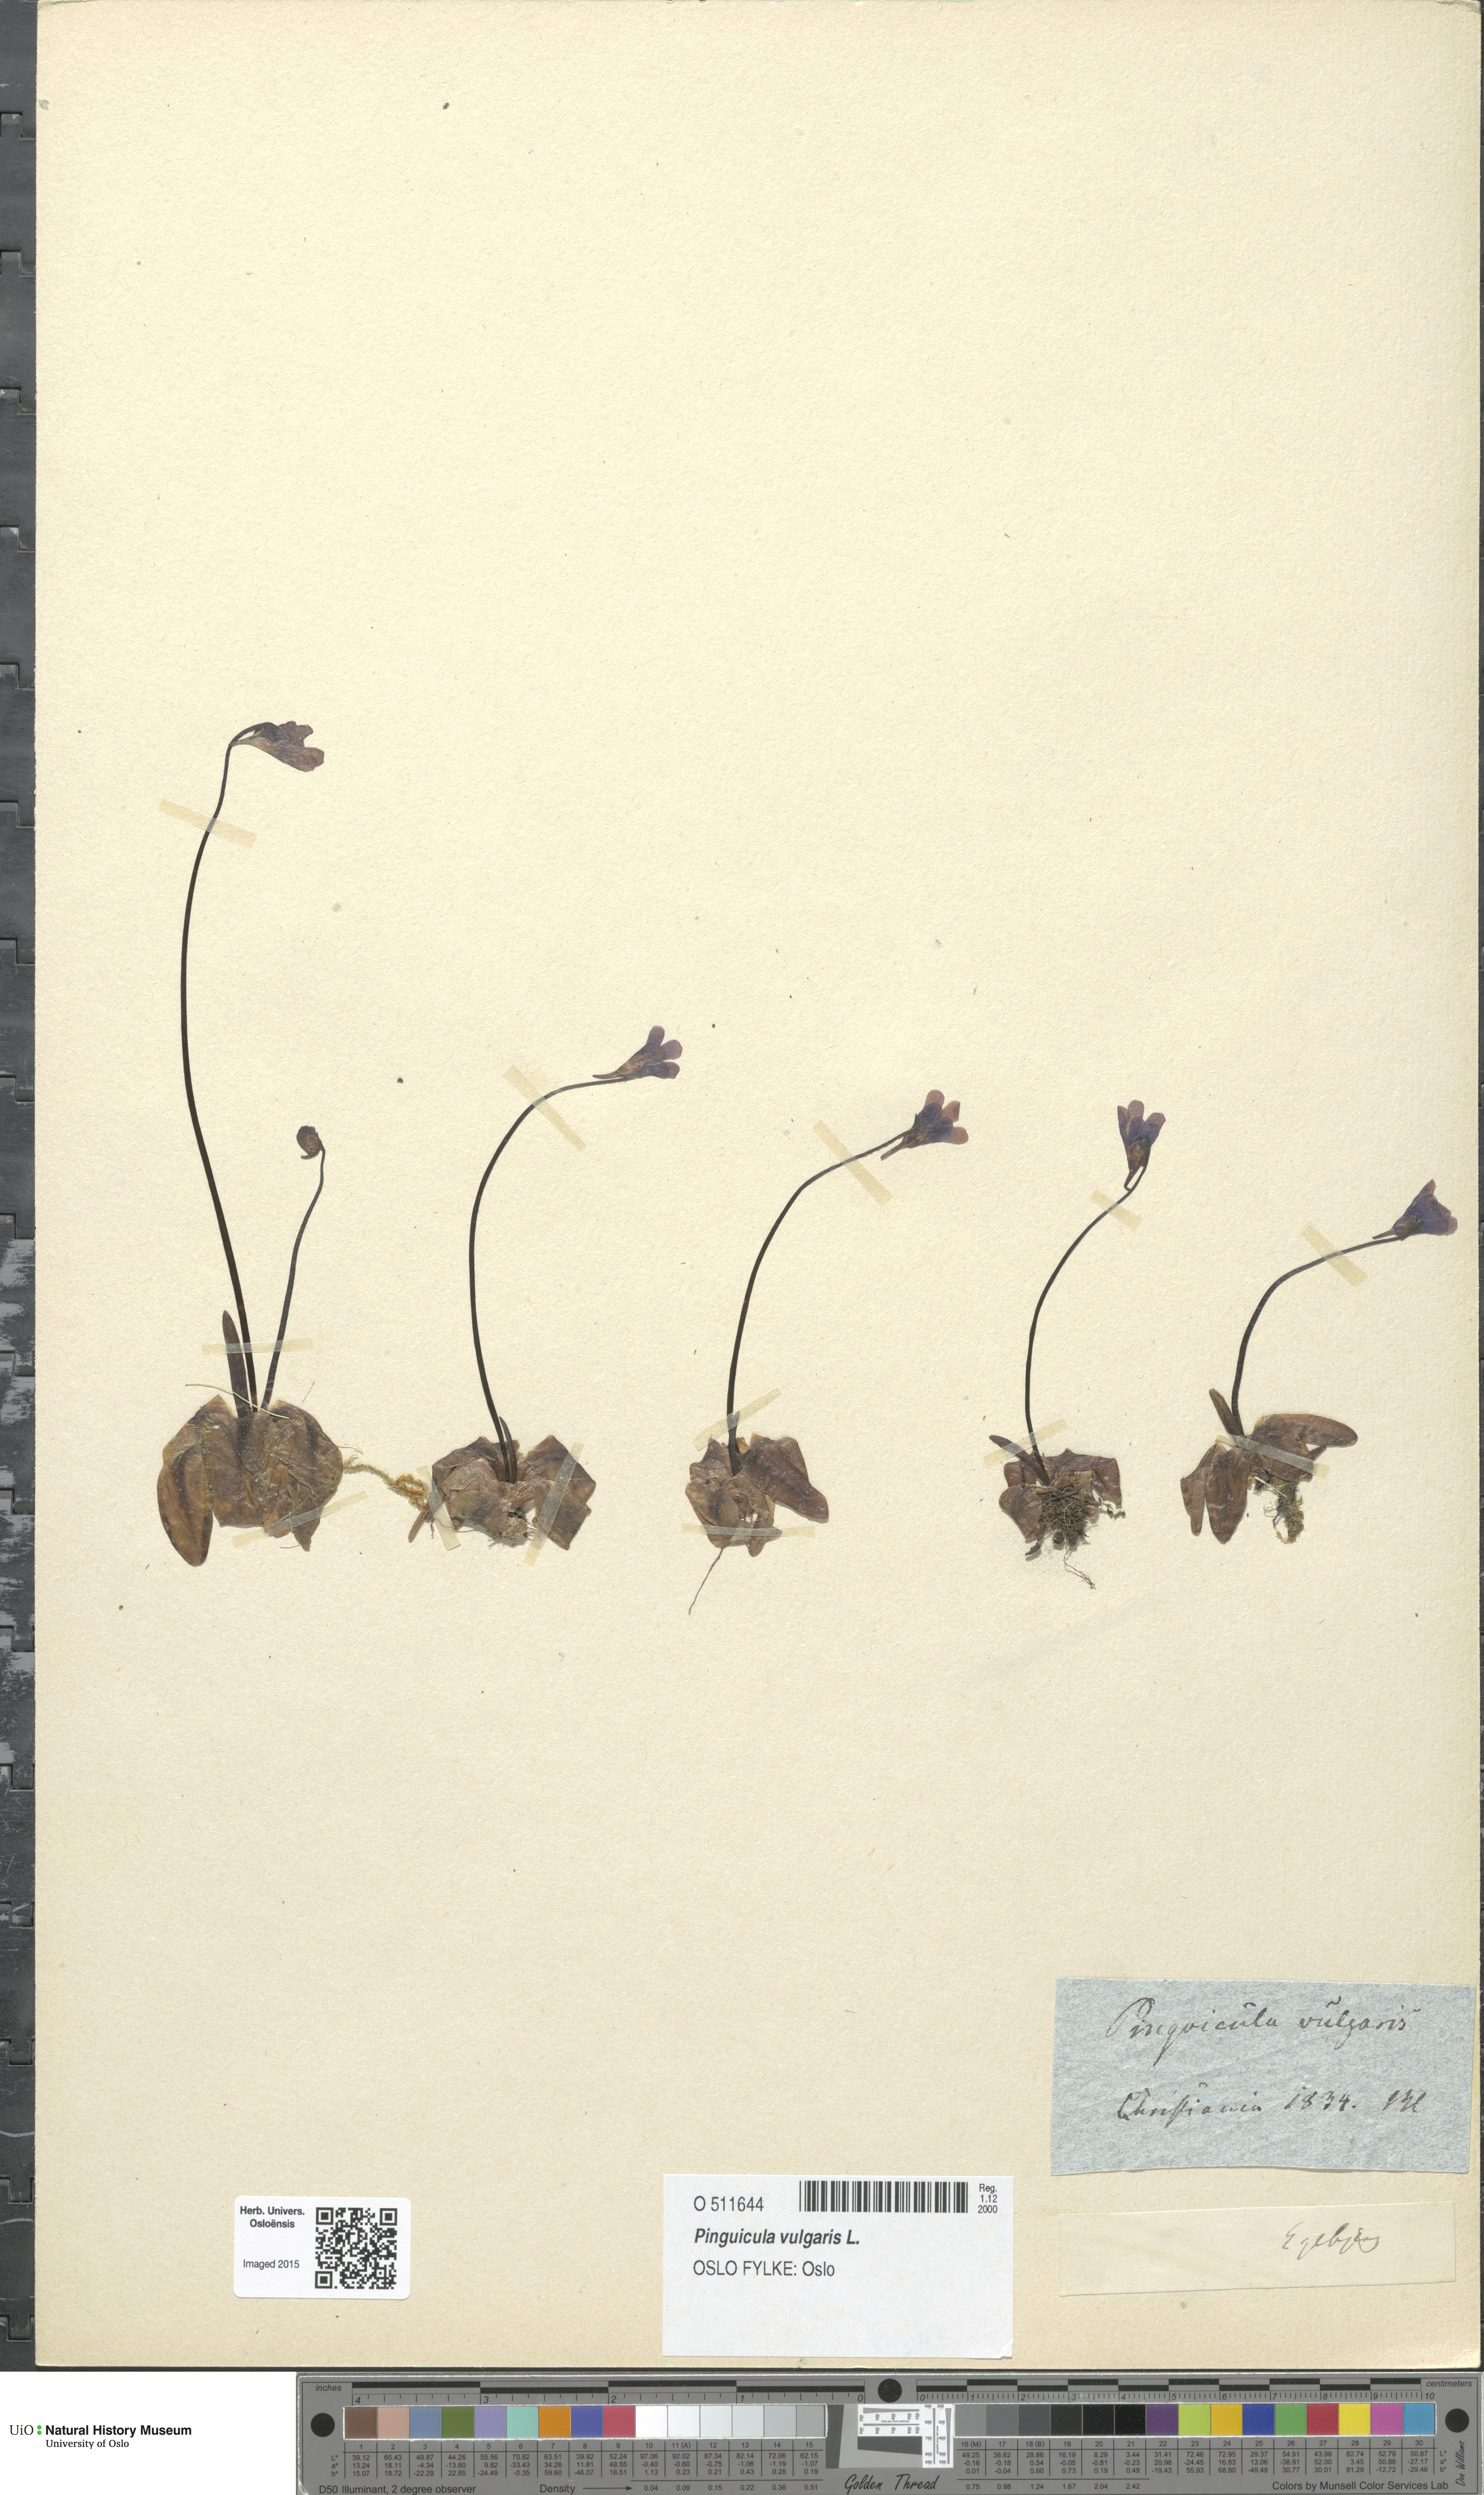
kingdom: Plantae
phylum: Tracheophyta
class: Magnoliopsida
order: Lamiales
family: Lentibulariaceae
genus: Pinguicula
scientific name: Pinguicula vulgaris
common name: Common butterwort
